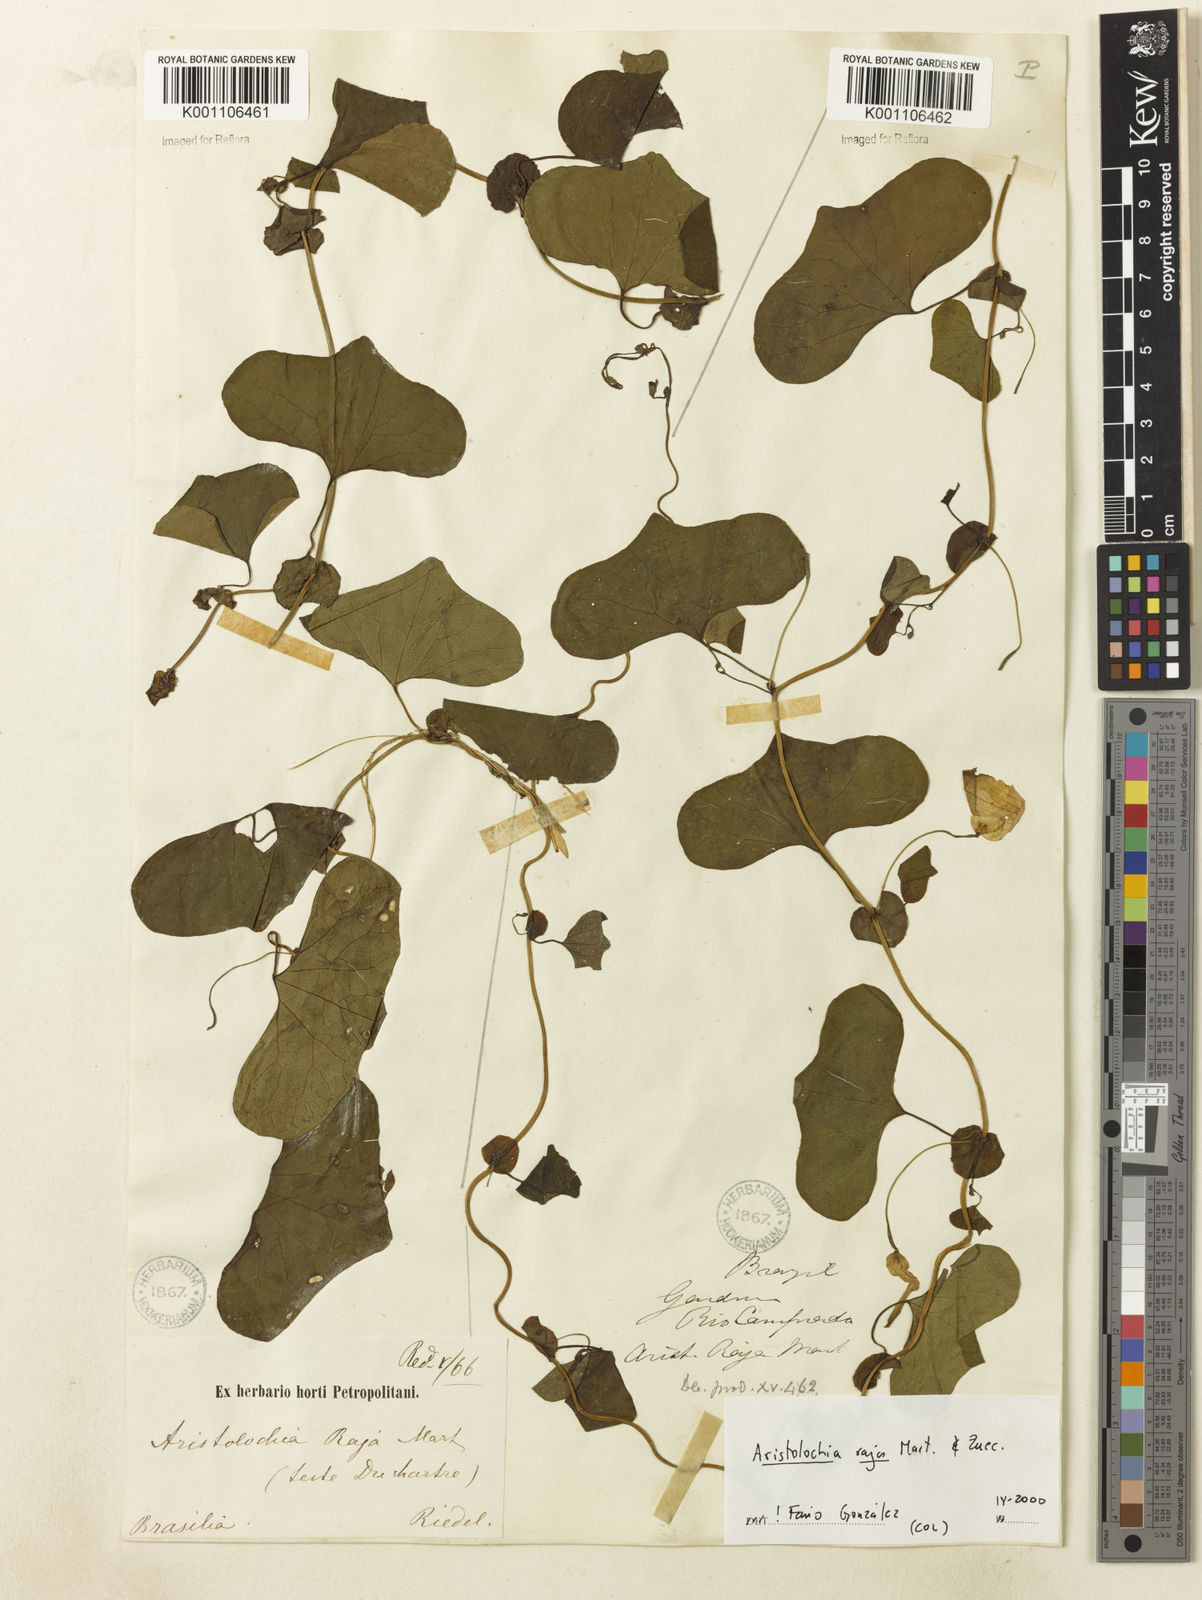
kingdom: Plantae
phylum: Tracheophyta
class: Magnoliopsida
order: Piperales
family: Aristolochiaceae
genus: Aristolochia
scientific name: Aristolochia raja
